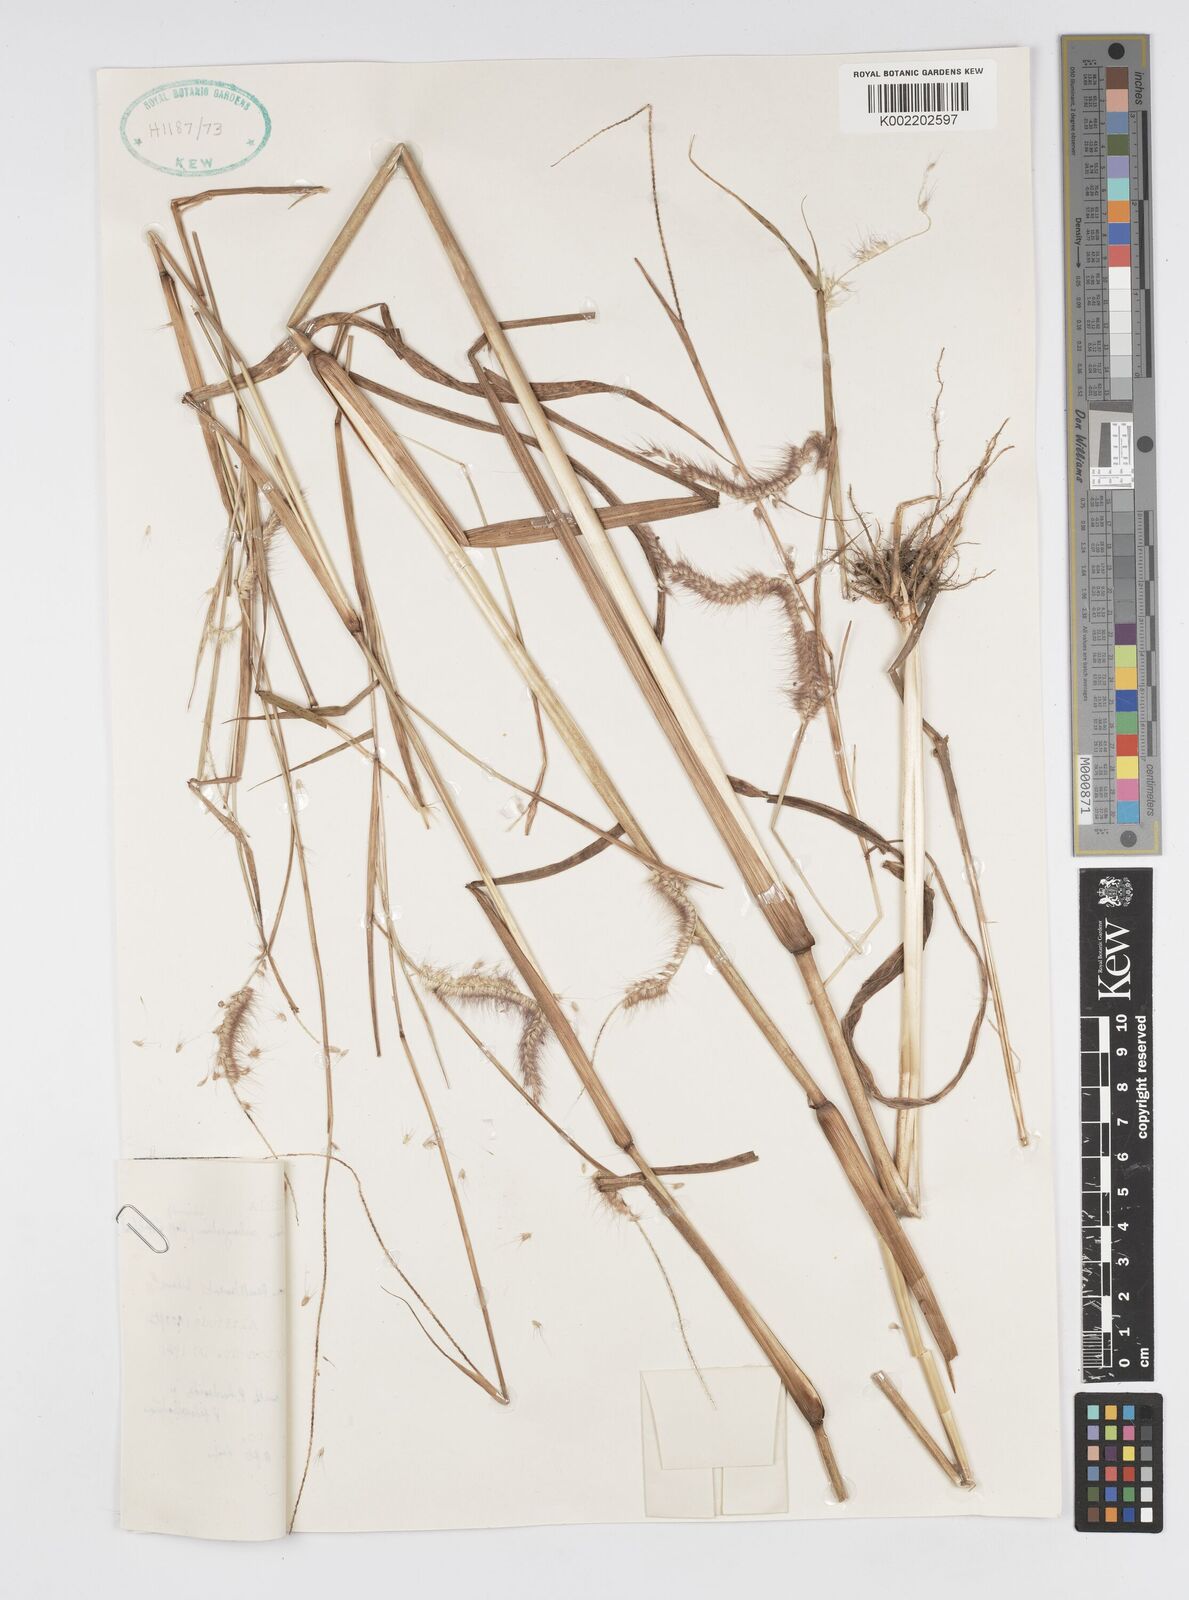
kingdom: Plantae
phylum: Tracheophyta
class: Liliopsida
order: Poales
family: Poaceae
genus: Setaria
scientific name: Setaria parviflora
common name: Knotroot bristle-grass
